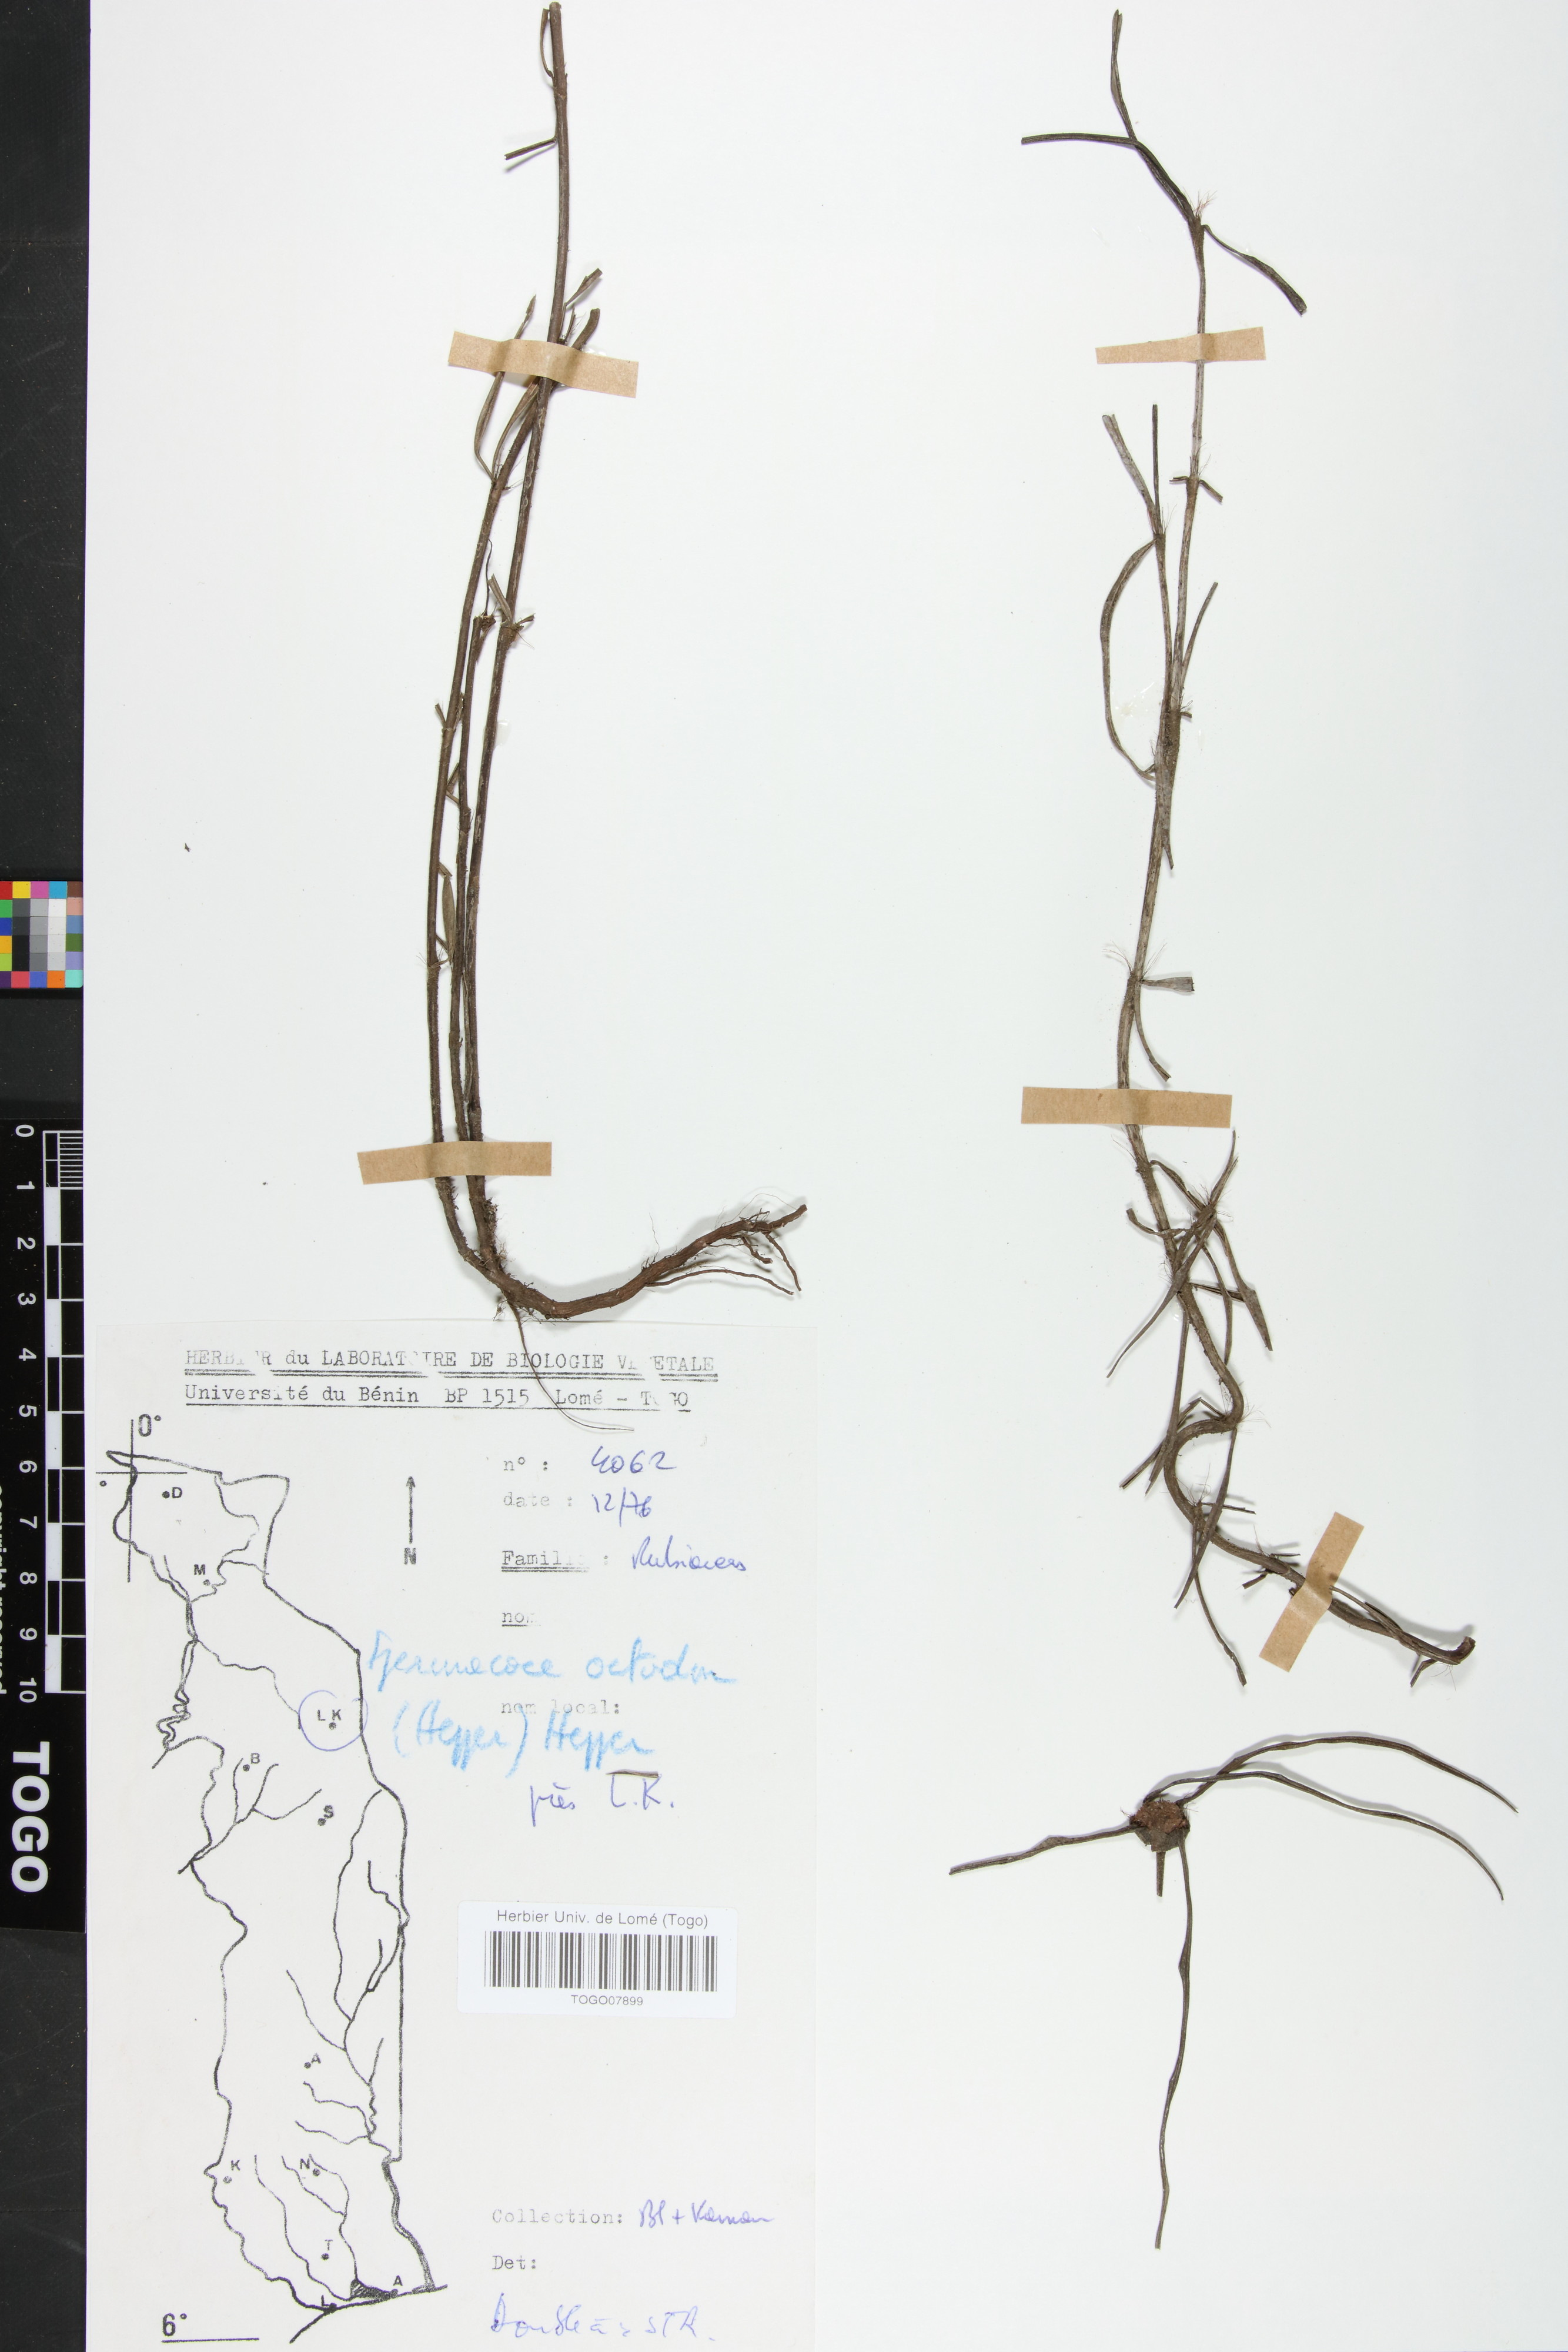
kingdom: Plantae
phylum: Tracheophyta
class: Magnoliopsida
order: Gentianales
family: Rubiaceae
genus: Spermacoce
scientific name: Spermacoce octodon
